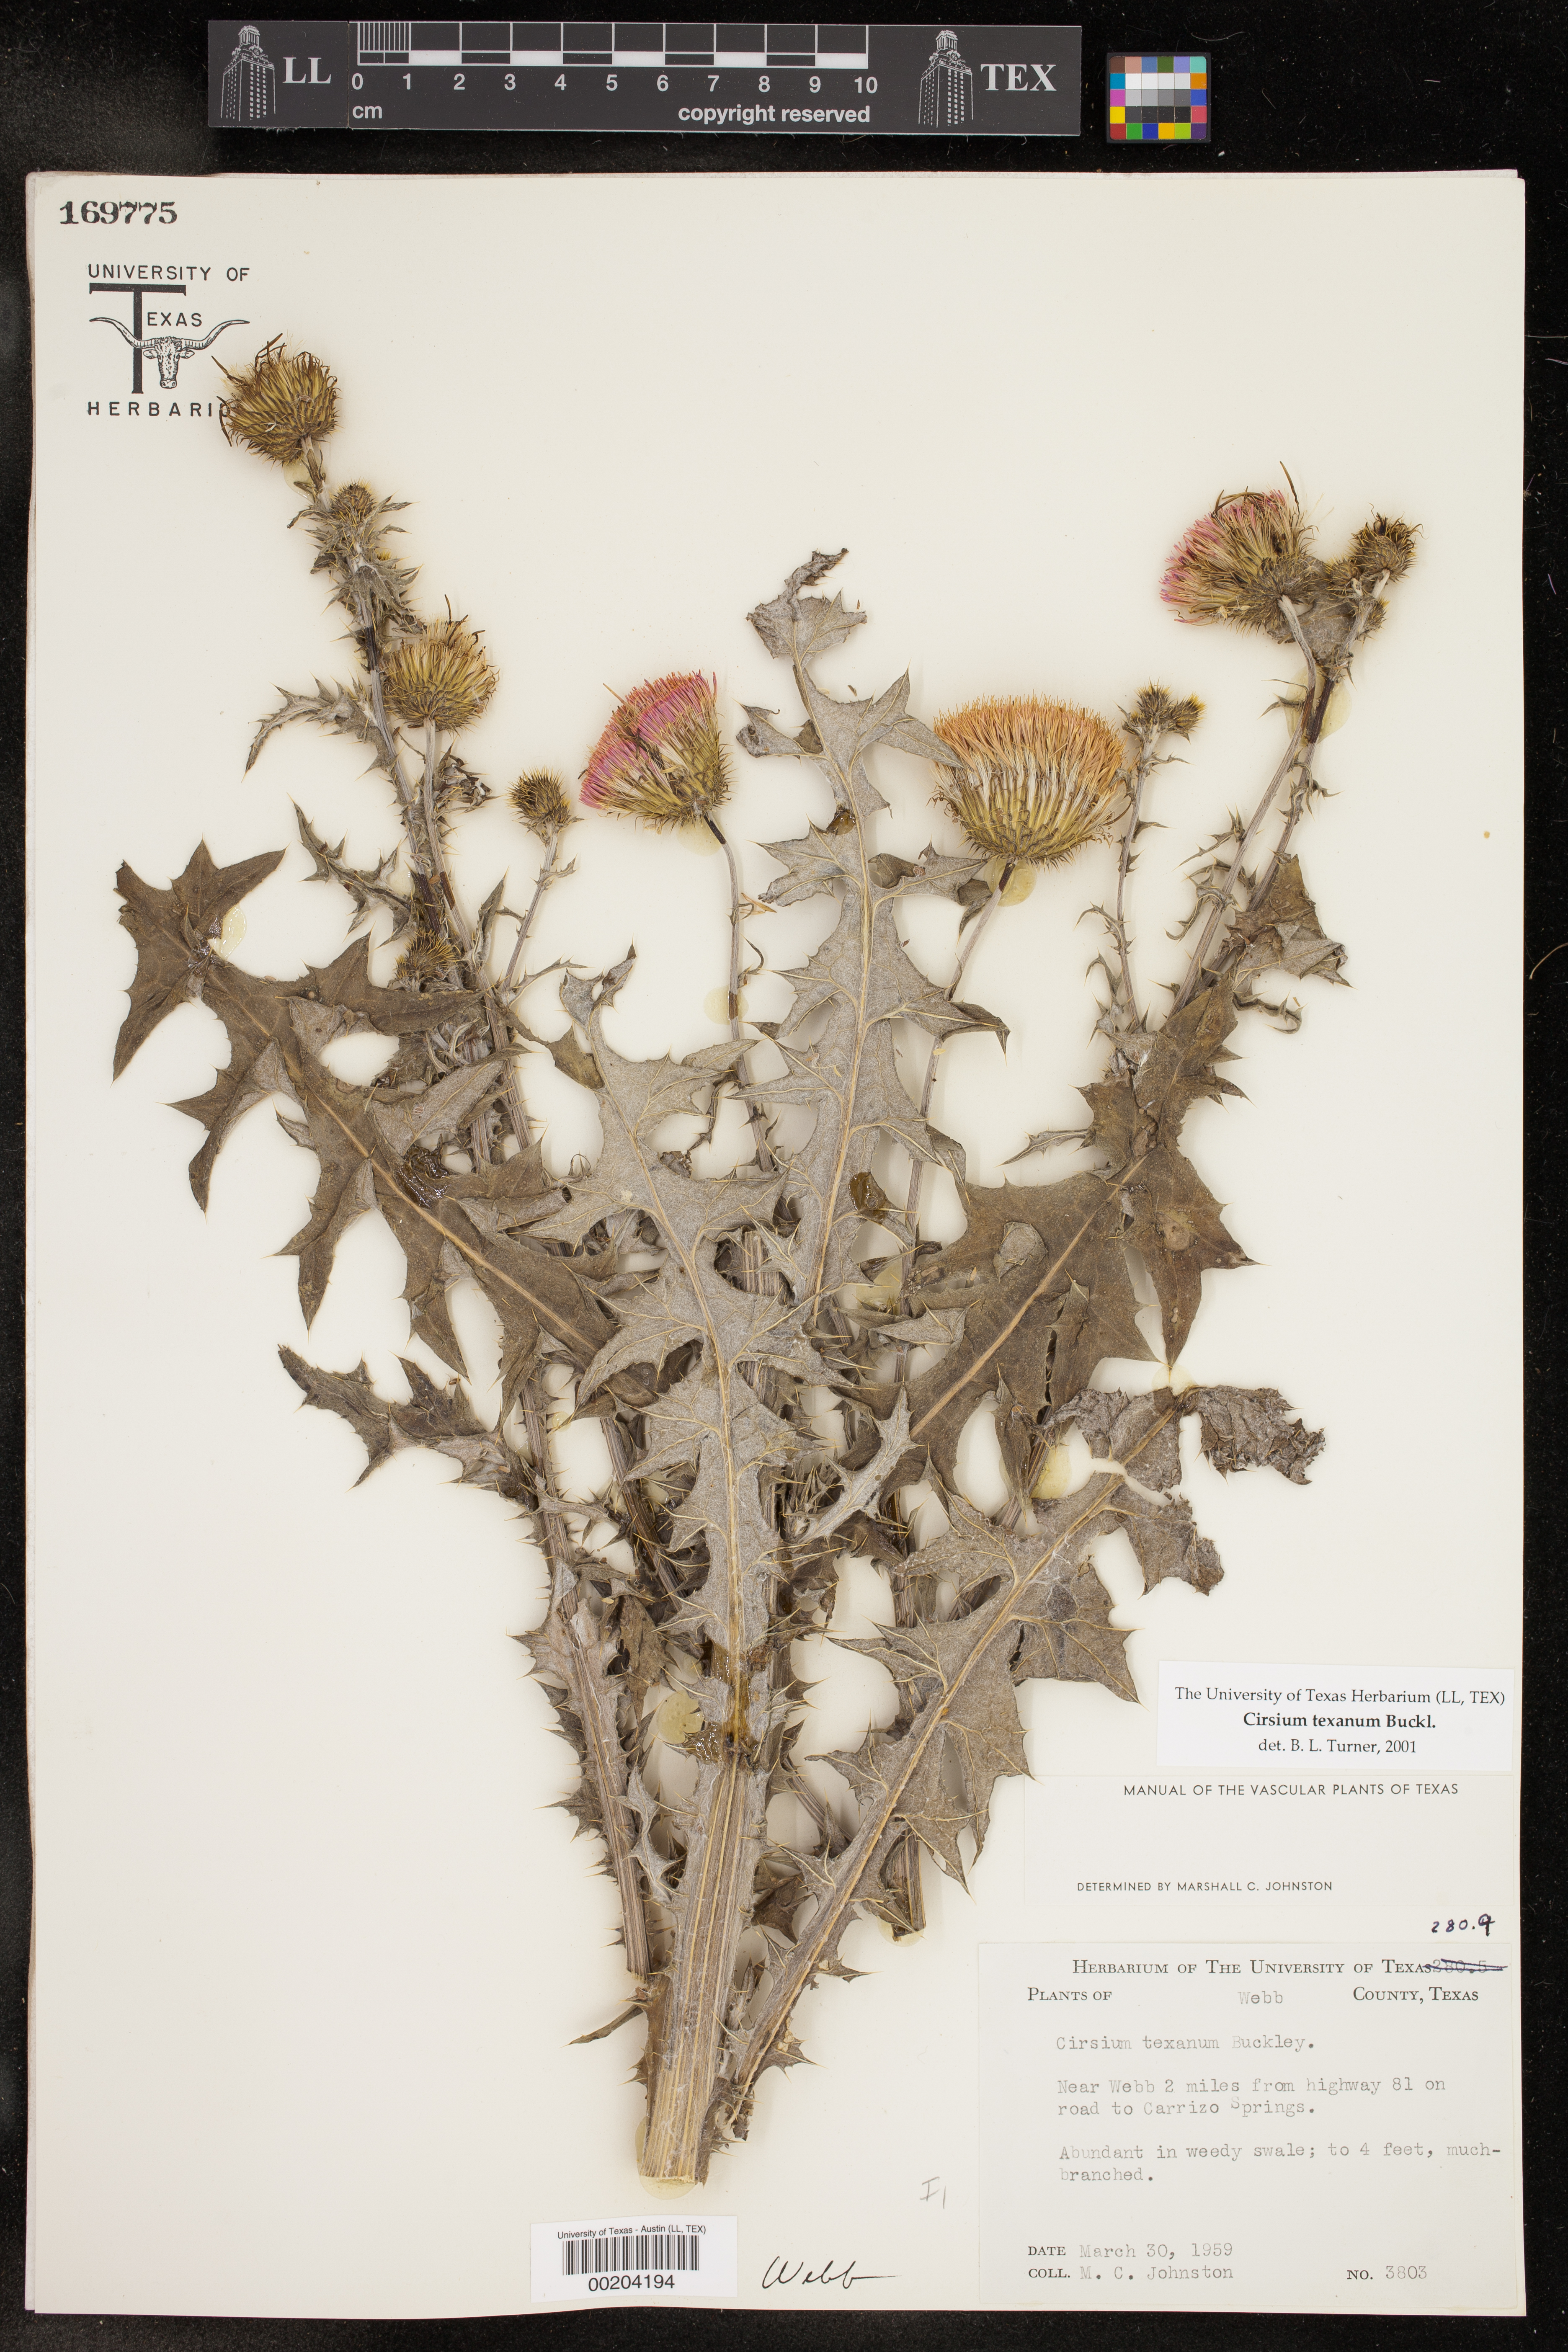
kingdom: Plantae
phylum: Tracheophyta
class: Magnoliopsida
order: Asterales
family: Asteraceae
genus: Cirsium
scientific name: Cirsium texanum
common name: Texas purple thistle
